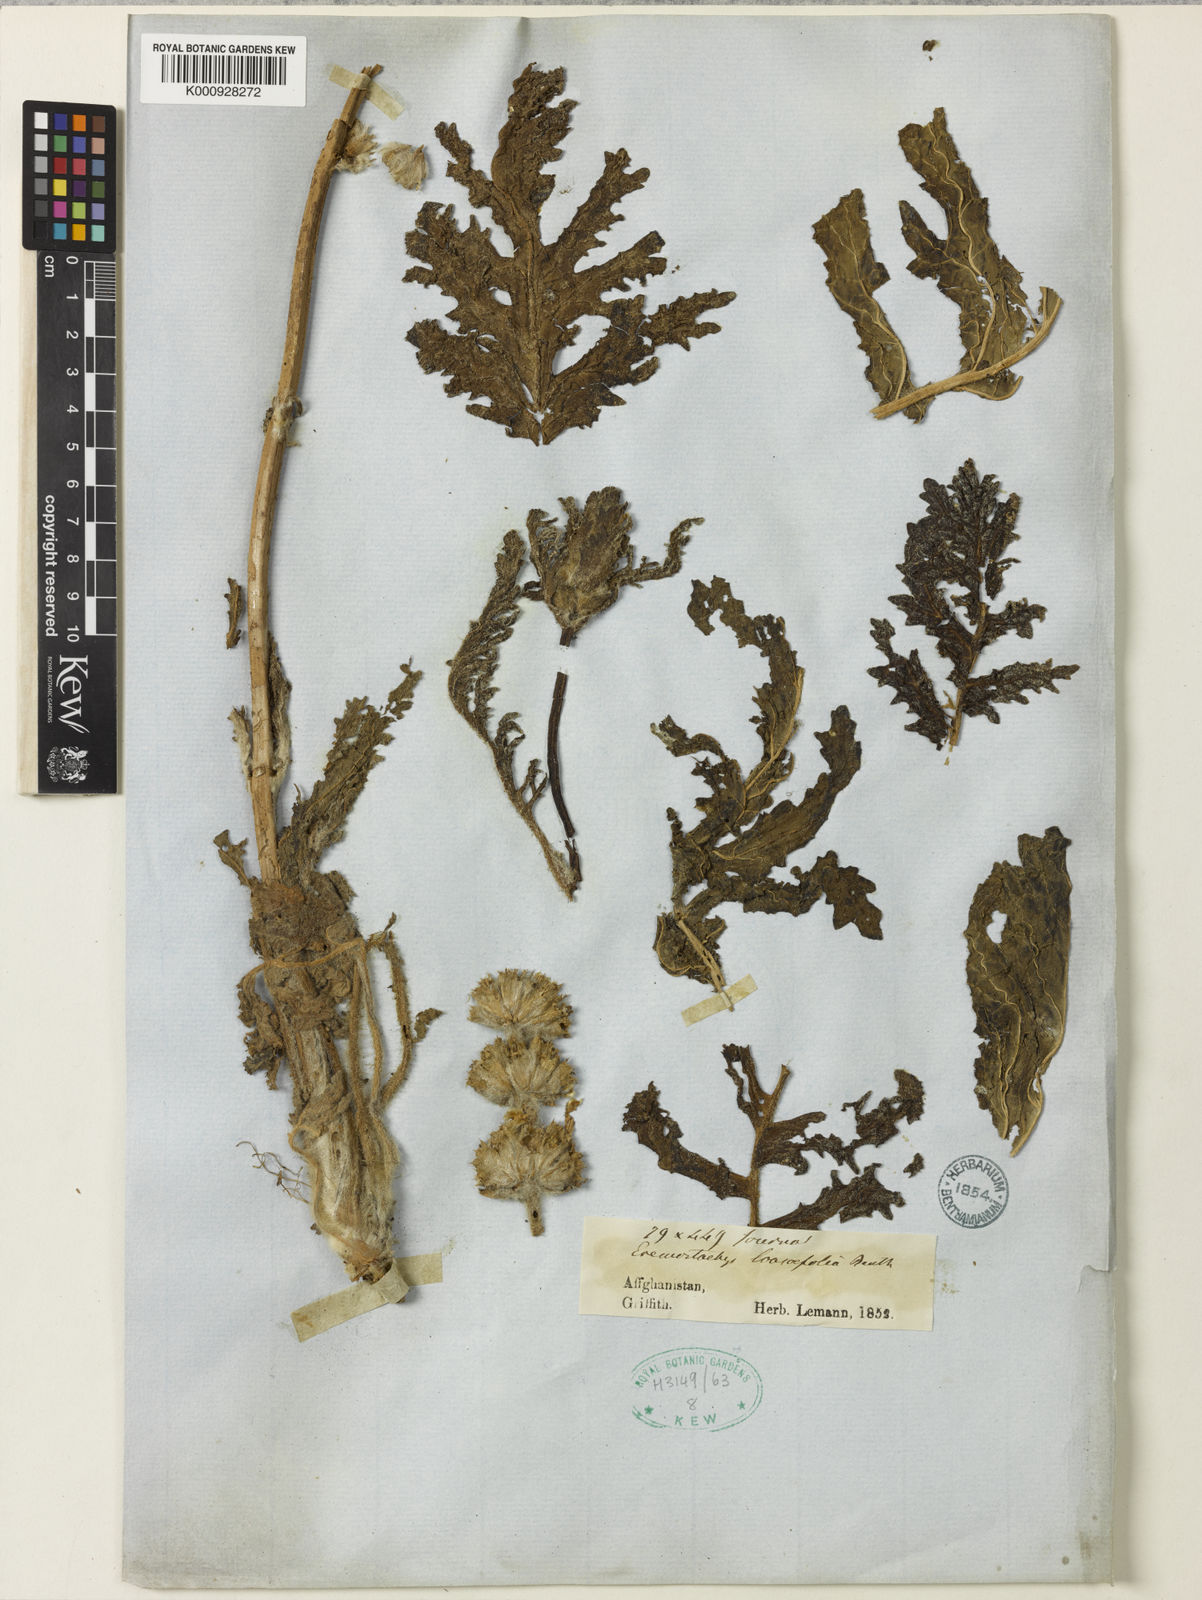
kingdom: Plantae
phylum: Tracheophyta
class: Magnoliopsida
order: Lamiales
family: Lamiaceae
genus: Phlomoides
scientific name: Phlomoides loasifolia
